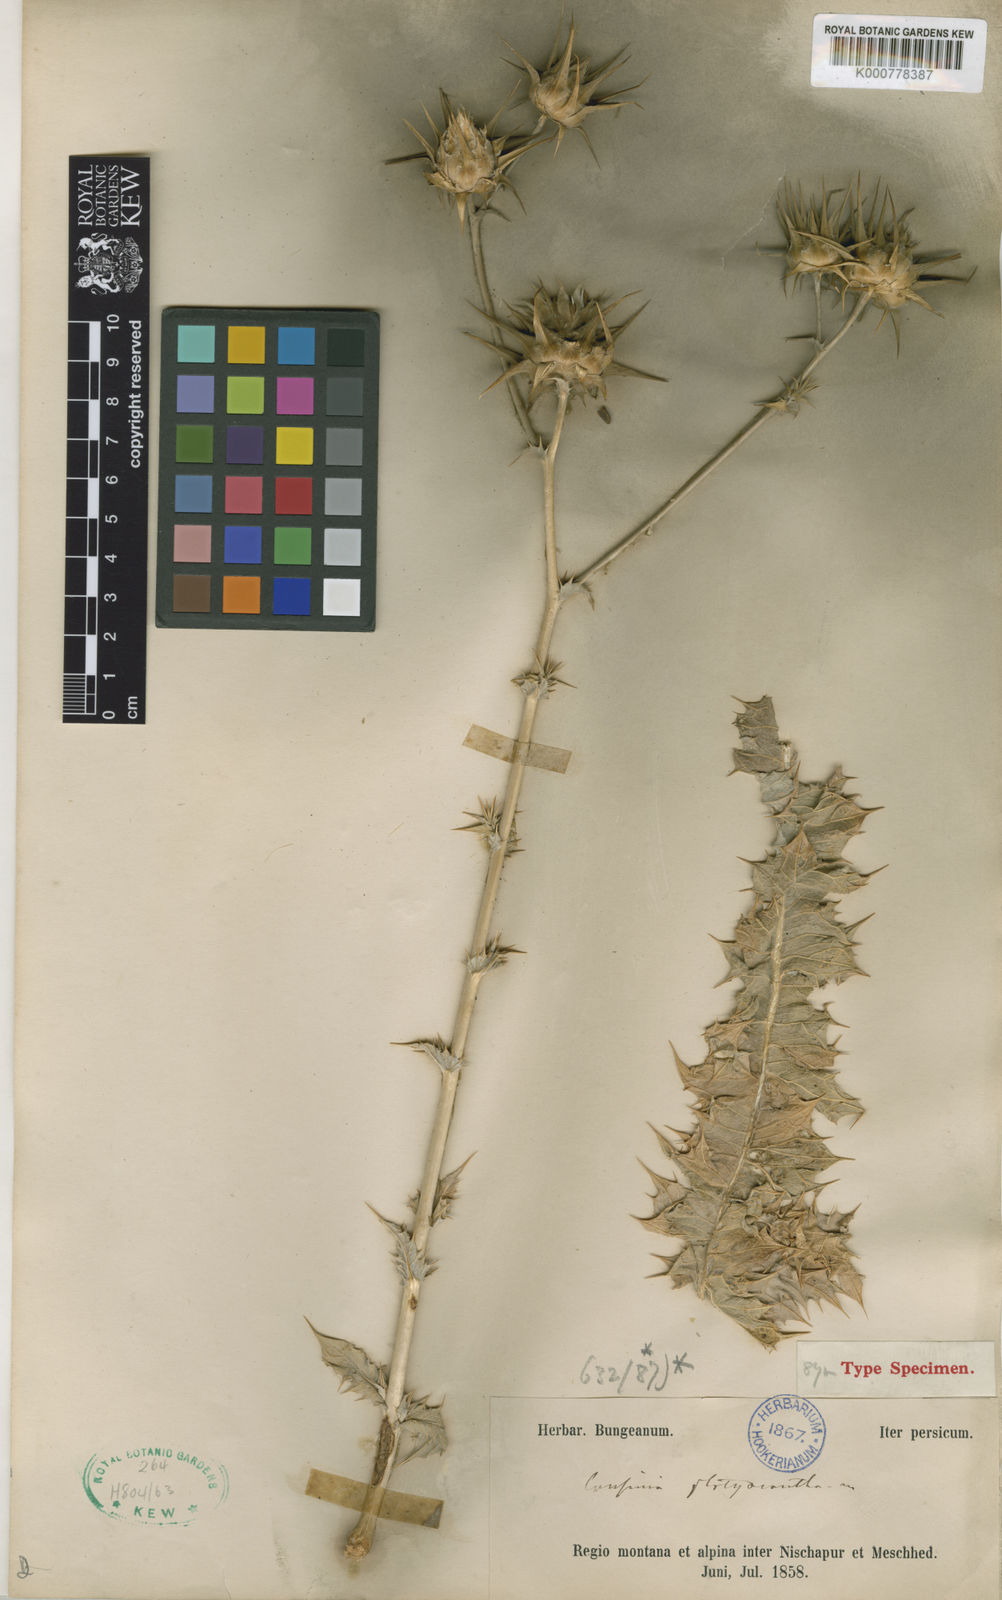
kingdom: Plantae
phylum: Tracheophyta
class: Magnoliopsida
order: Asterales
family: Asteraceae
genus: Cousinia
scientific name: Cousinia platyacantha
